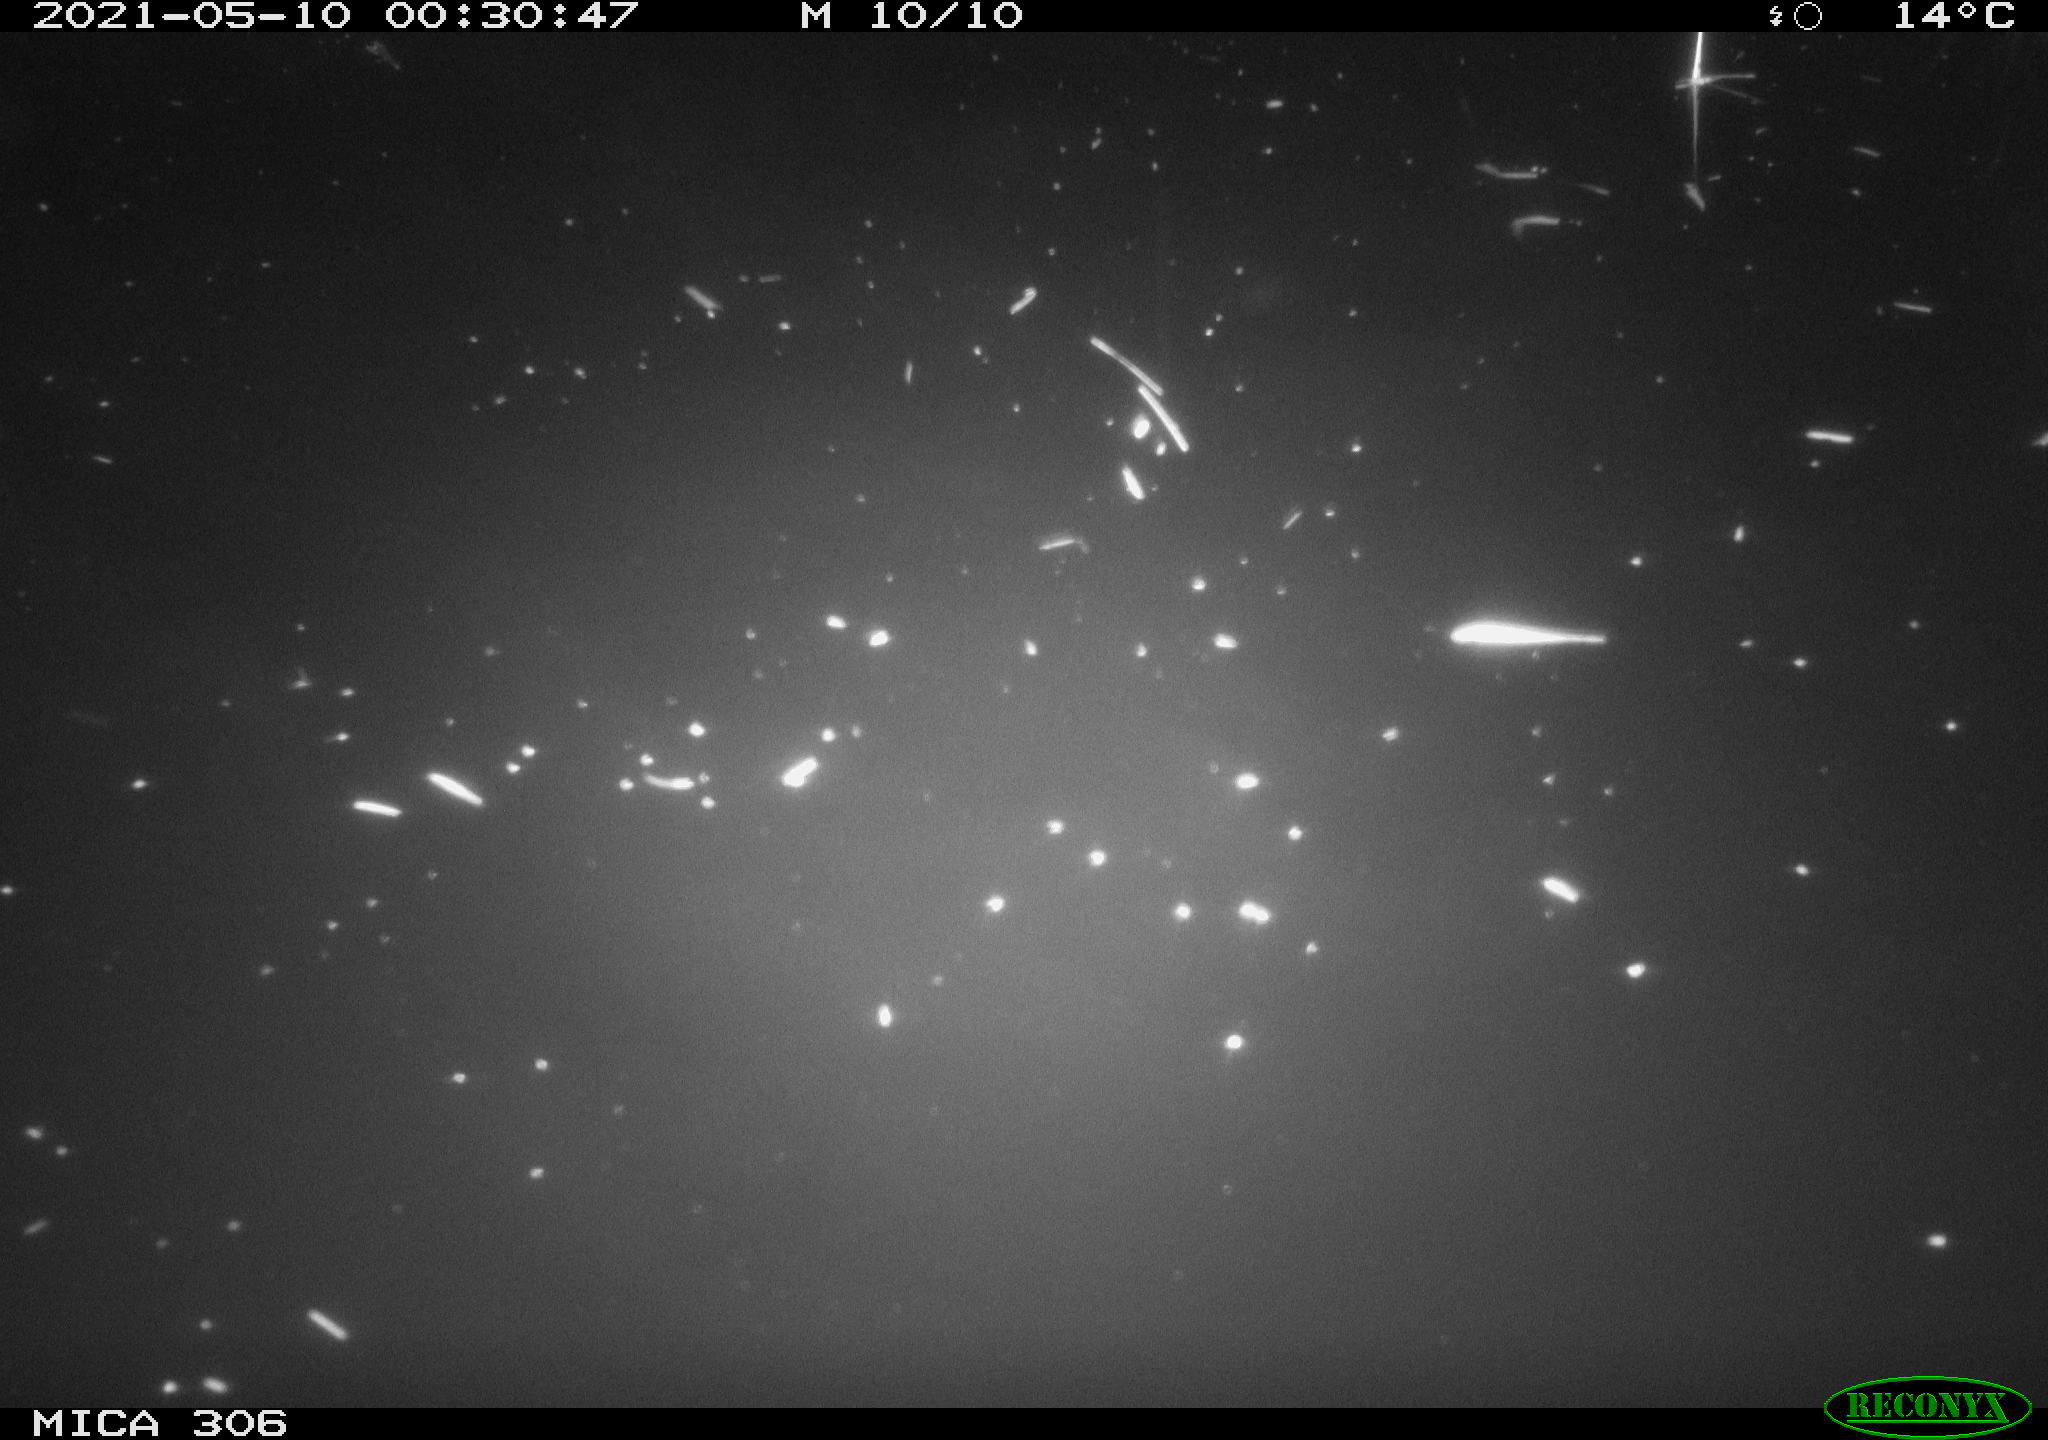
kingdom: Animalia
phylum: Chordata
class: Mammalia
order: Rodentia
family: Cricetidae
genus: Ondatra
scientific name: Ondatra zibethicus
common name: Muskrat
